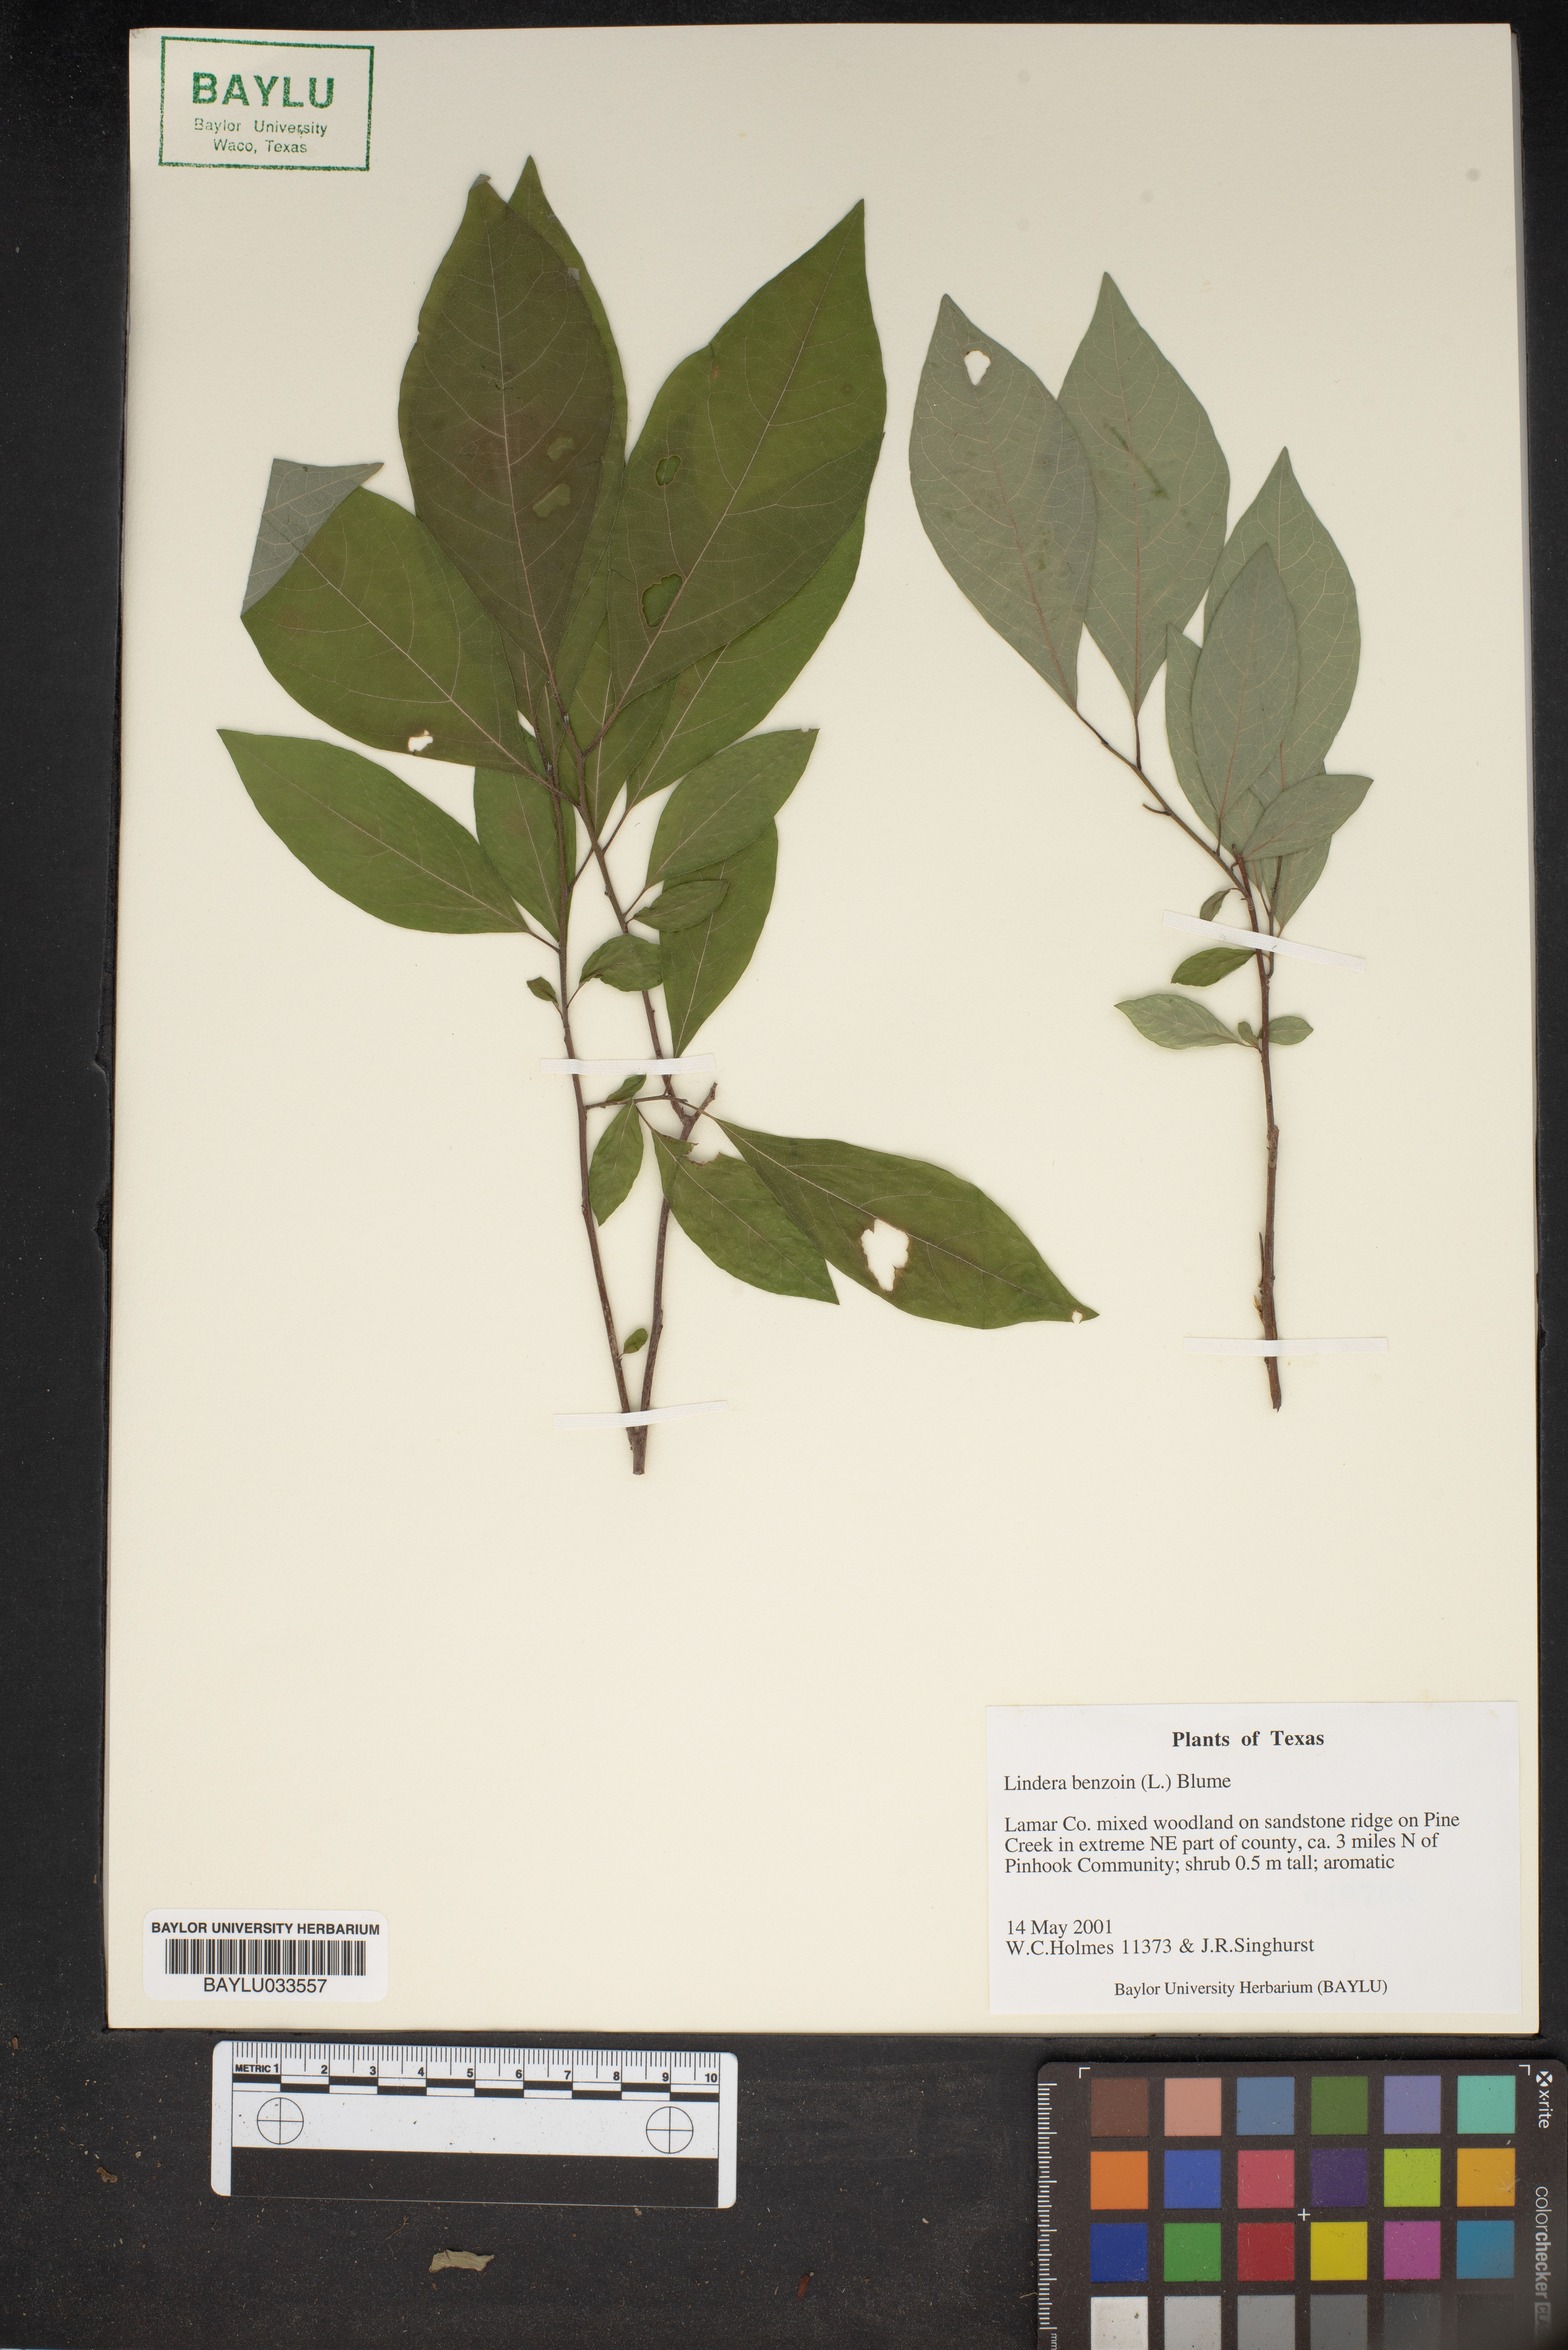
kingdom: Plantae
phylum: Tracheophyta
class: Magnoliopsida
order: Laurales
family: Lauraceae
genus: Lindera
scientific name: Lindera benzoin
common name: Spicebush
